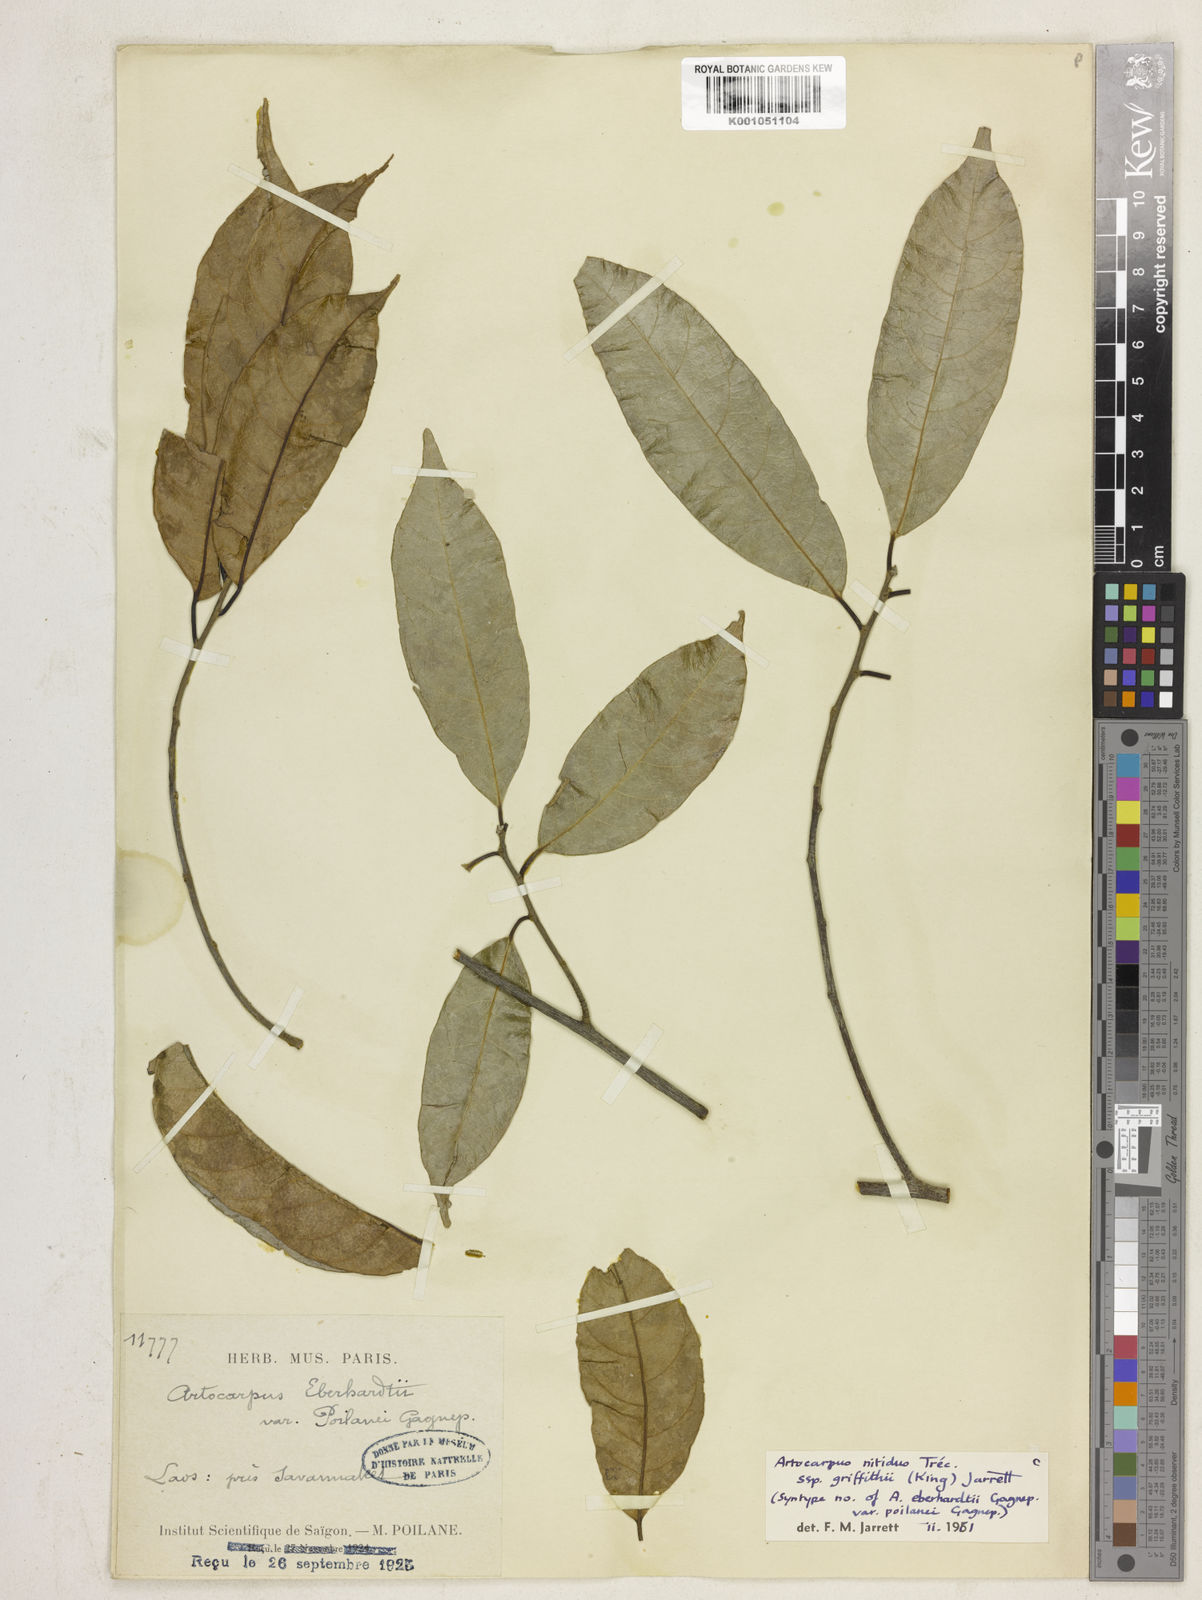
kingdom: Plantae
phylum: Tracheophyta
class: Magnoliopsida
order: Rosales
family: Moraceae
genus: Artocarpus
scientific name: Artocarpus
